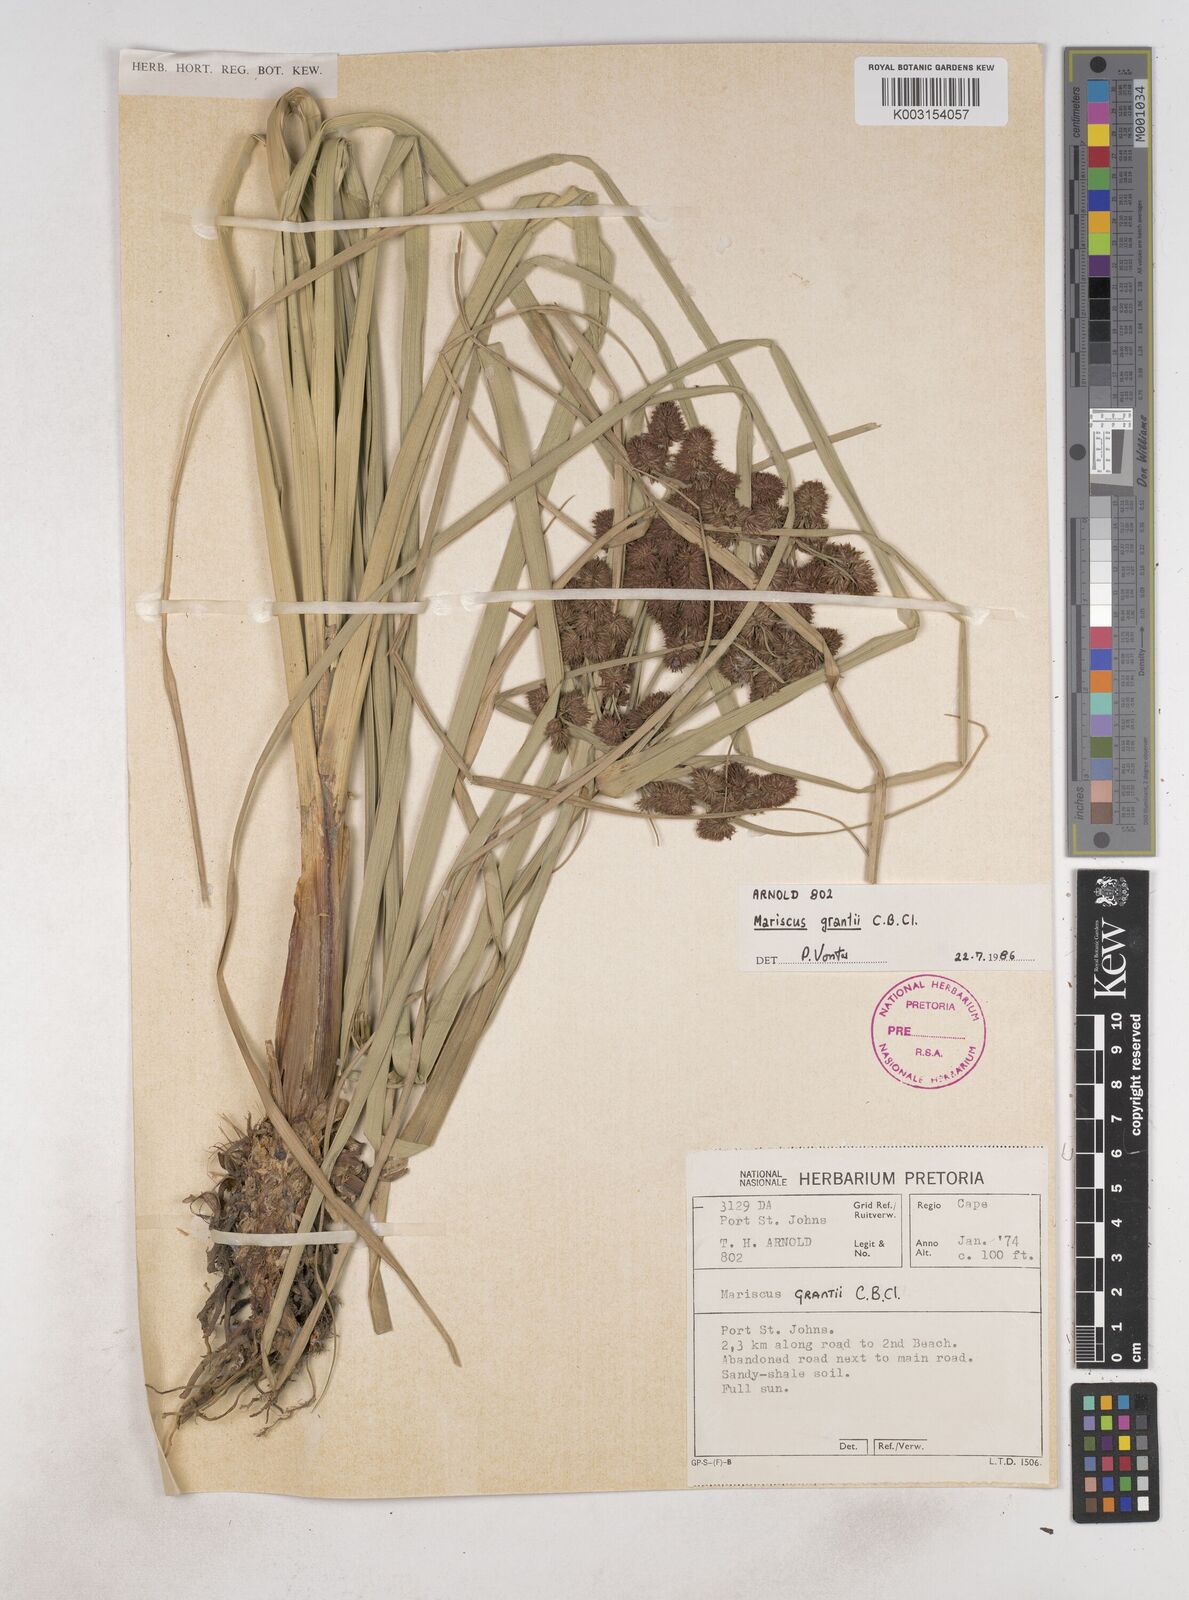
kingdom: Plantae
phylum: Tracheophyta
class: Liliopsida
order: Poales
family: Cyperaceae
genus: Cyperus
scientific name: Cyperus owanii
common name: Owan's flatsedge
